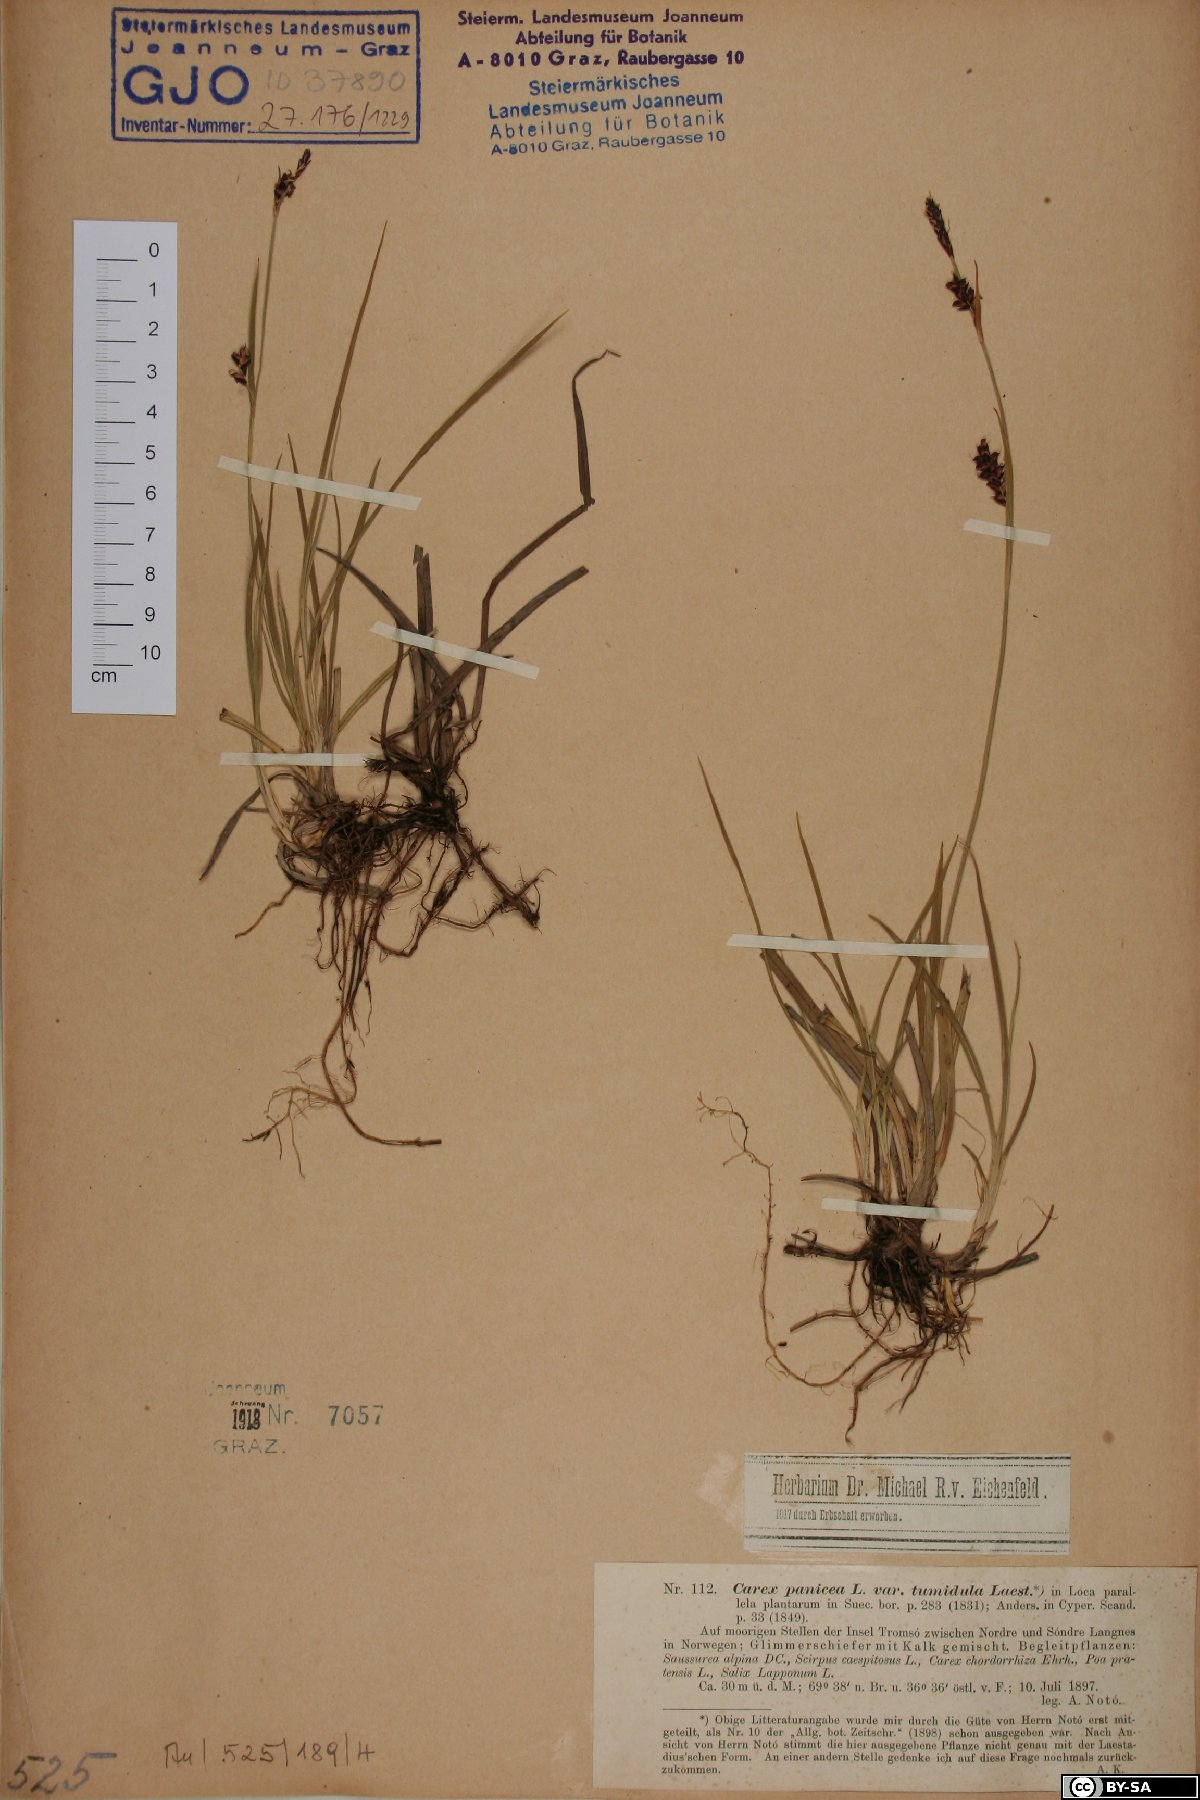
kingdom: Plantae
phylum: Tracheophyta
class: Liliopsida
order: Poales
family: Cyperaceae
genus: Carex
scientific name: Carex panicea
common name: Carnation sedge
